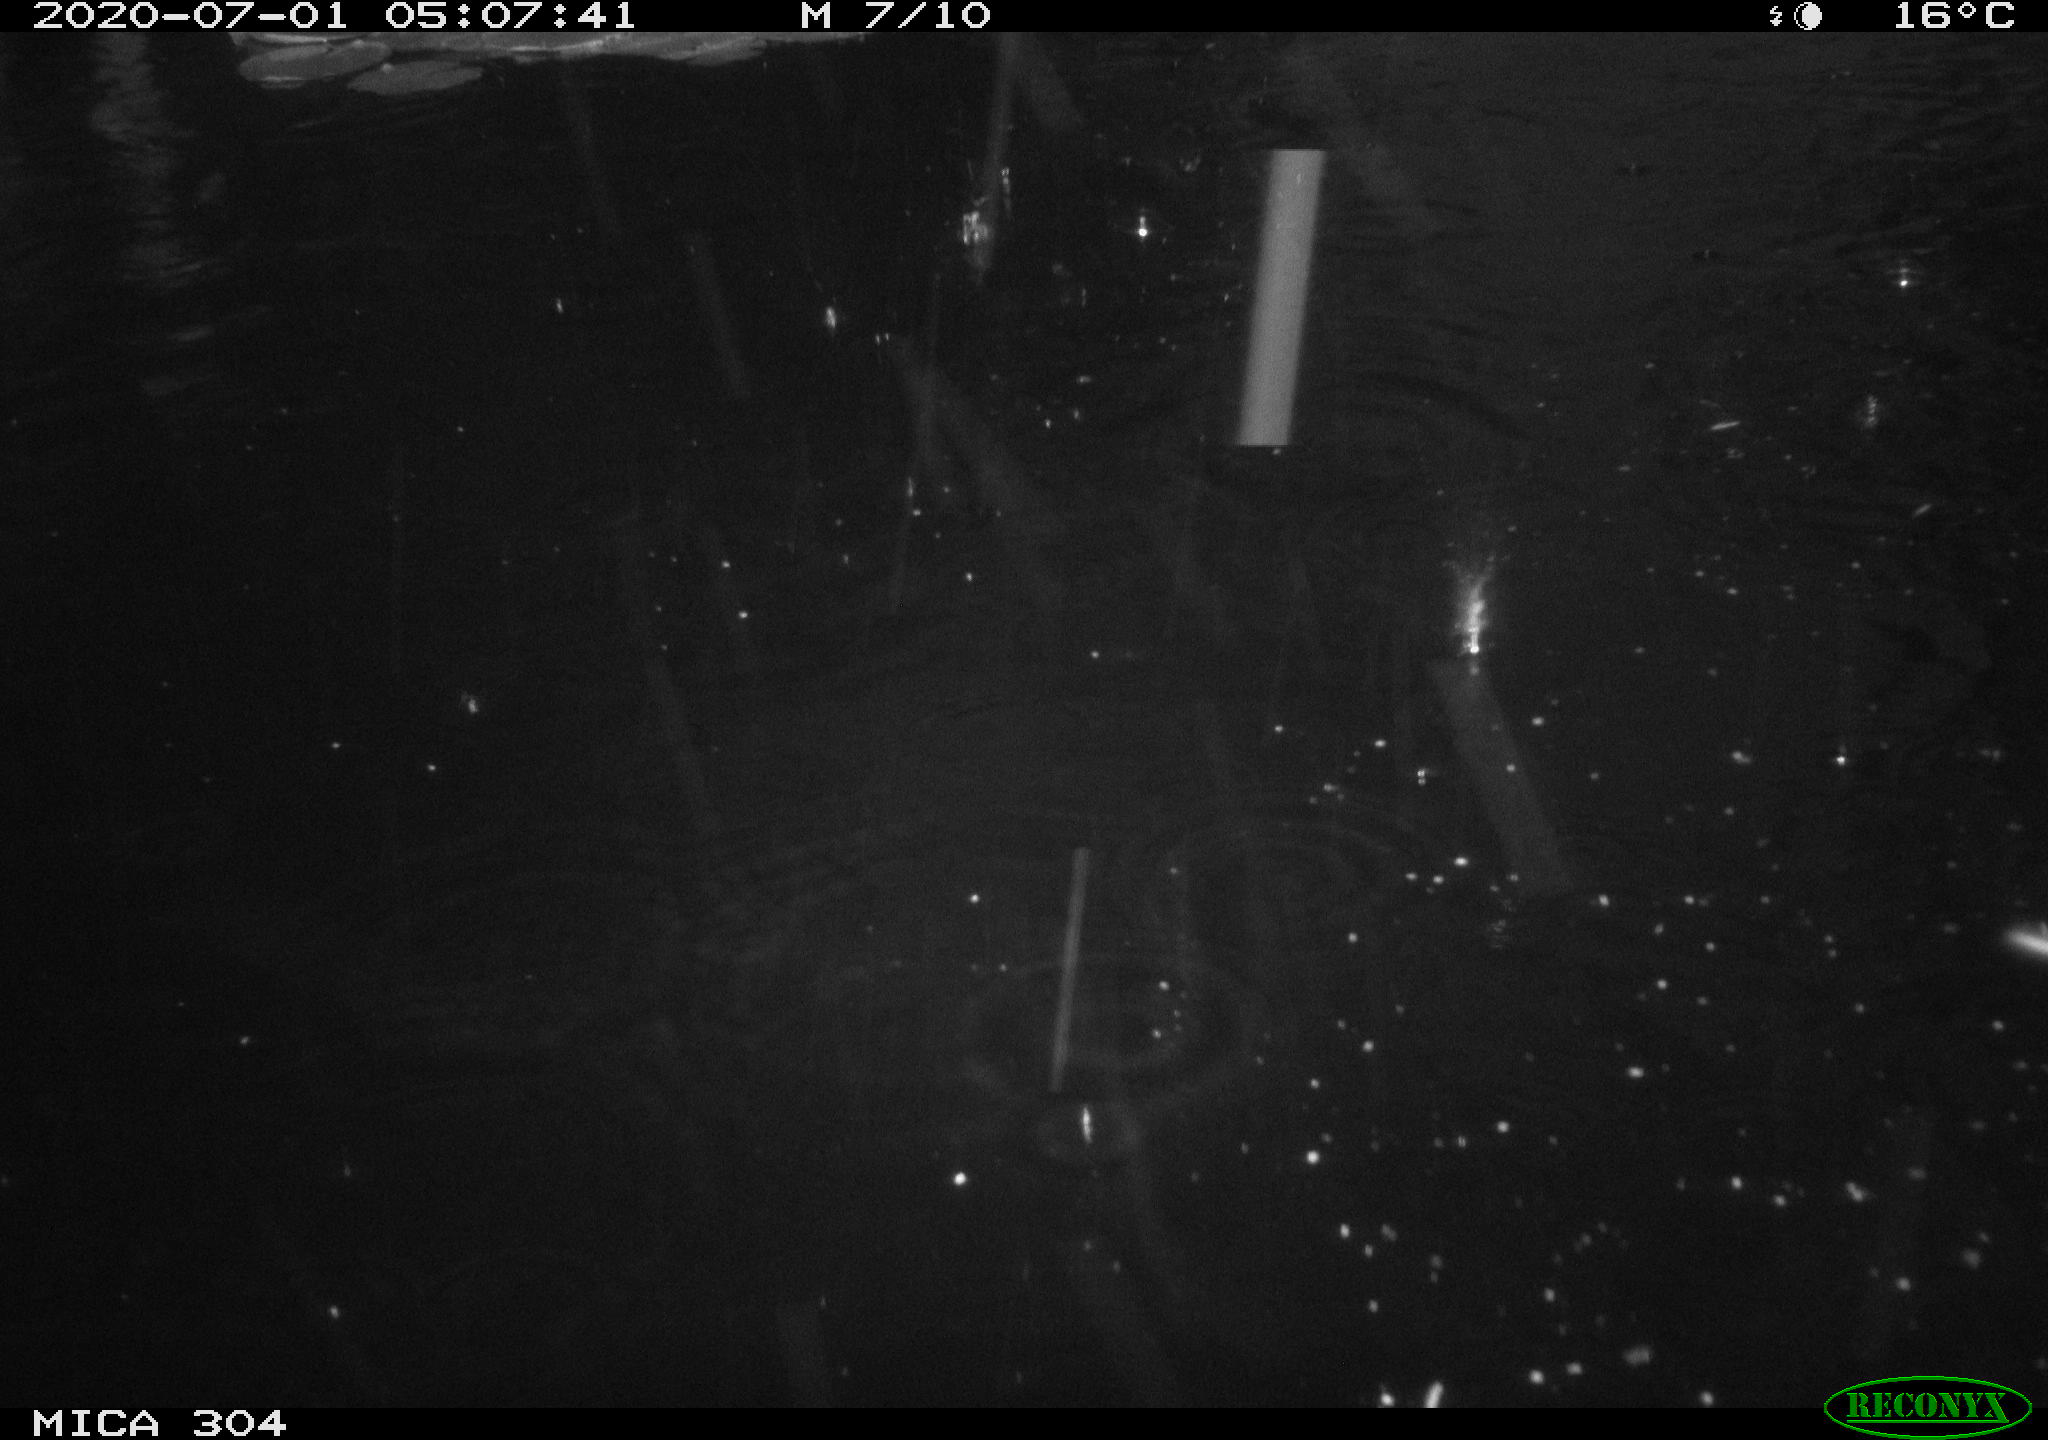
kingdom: Animalia
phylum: Chordata
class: Aves
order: Anseriformes
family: Anatidae
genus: Anas
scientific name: Anas platyrhynchos
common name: Mallard
